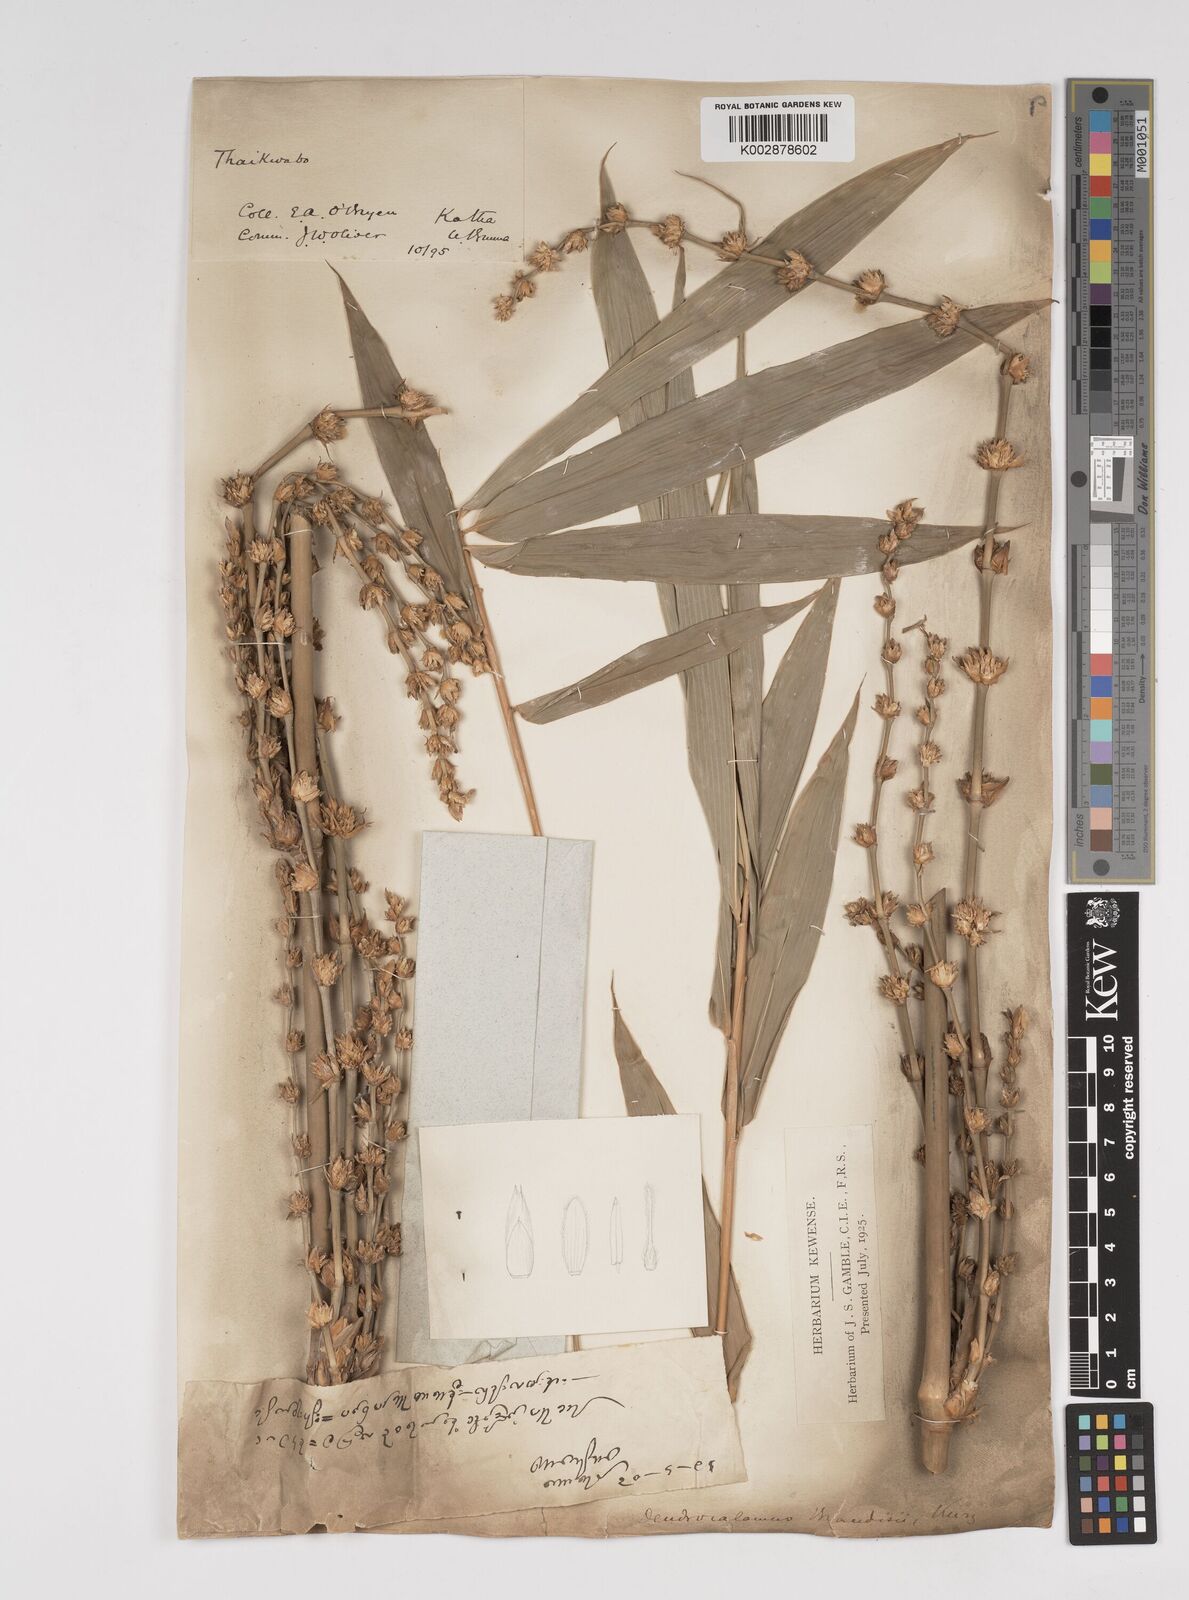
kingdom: Plantae
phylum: Tracheophyta
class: Liliopsida
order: Poales
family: Poaceae
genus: Dendrocalamus
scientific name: Dendrocalamus brandisii
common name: Velvetleaf bamboo
